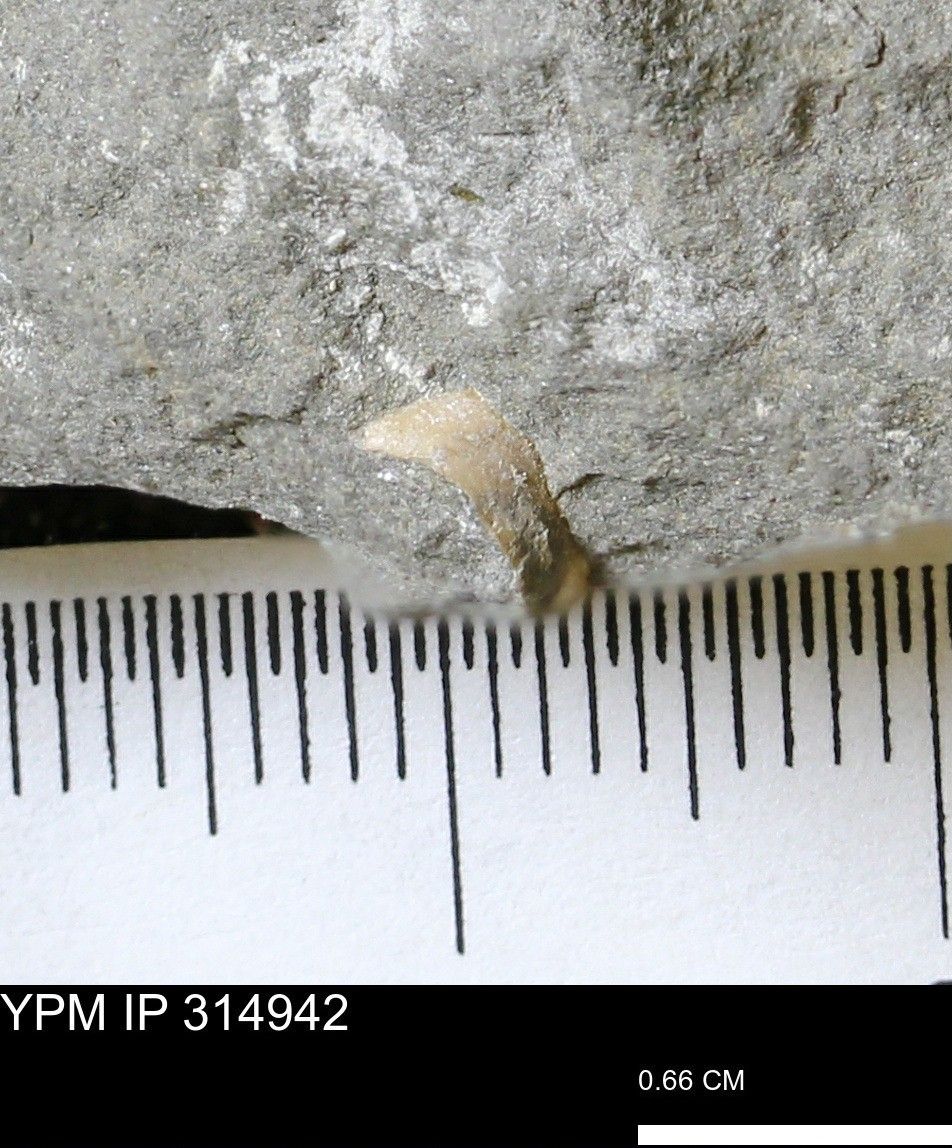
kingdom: Animalia
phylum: Mollusca
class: Bivalvia
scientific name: Bivalvia
